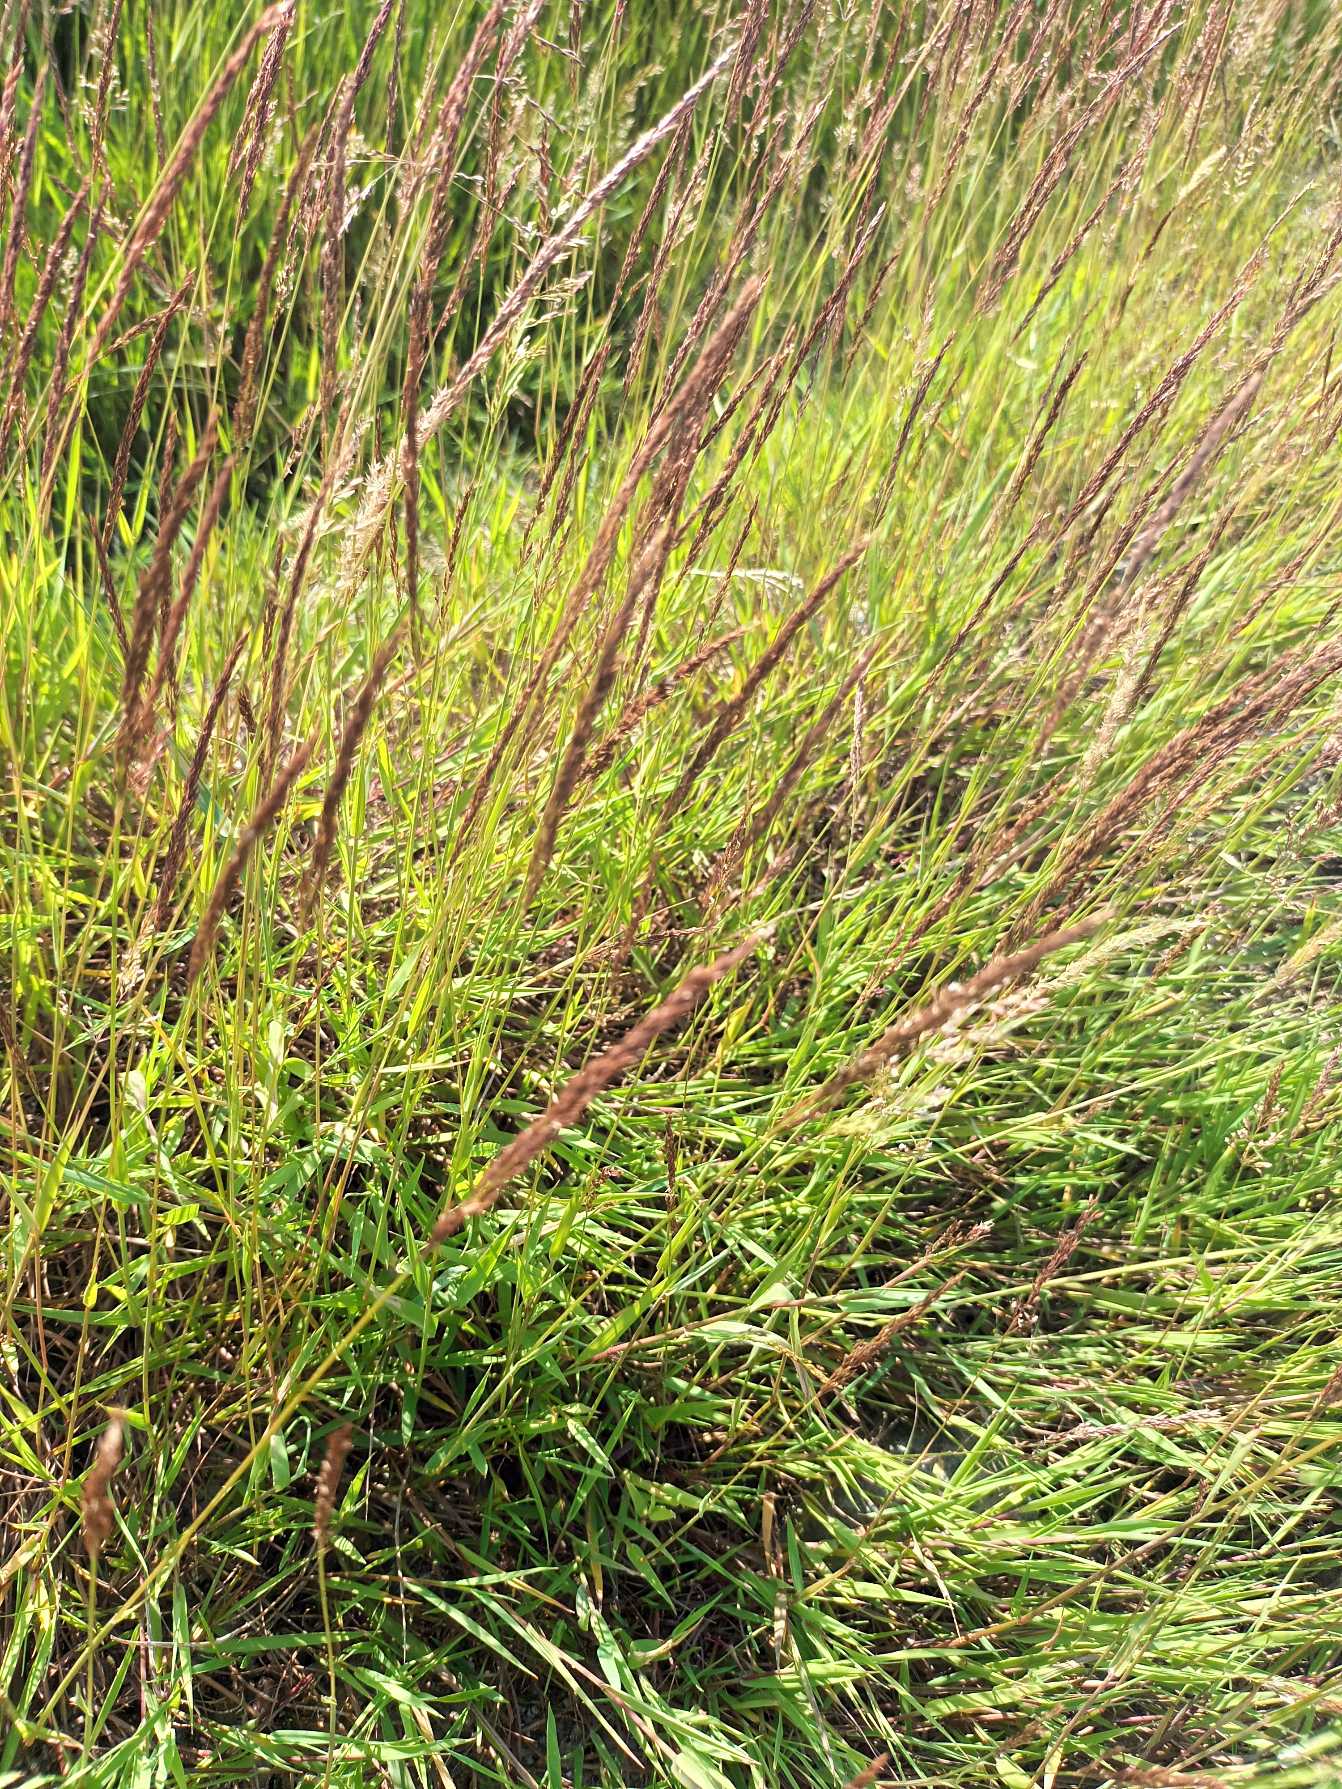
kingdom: Plantae
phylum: Tracheophyta
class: Liliopsida
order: Poales
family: Poaceae
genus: Agrostis
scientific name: Agrostis stolonifera
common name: Kryb-hvene
